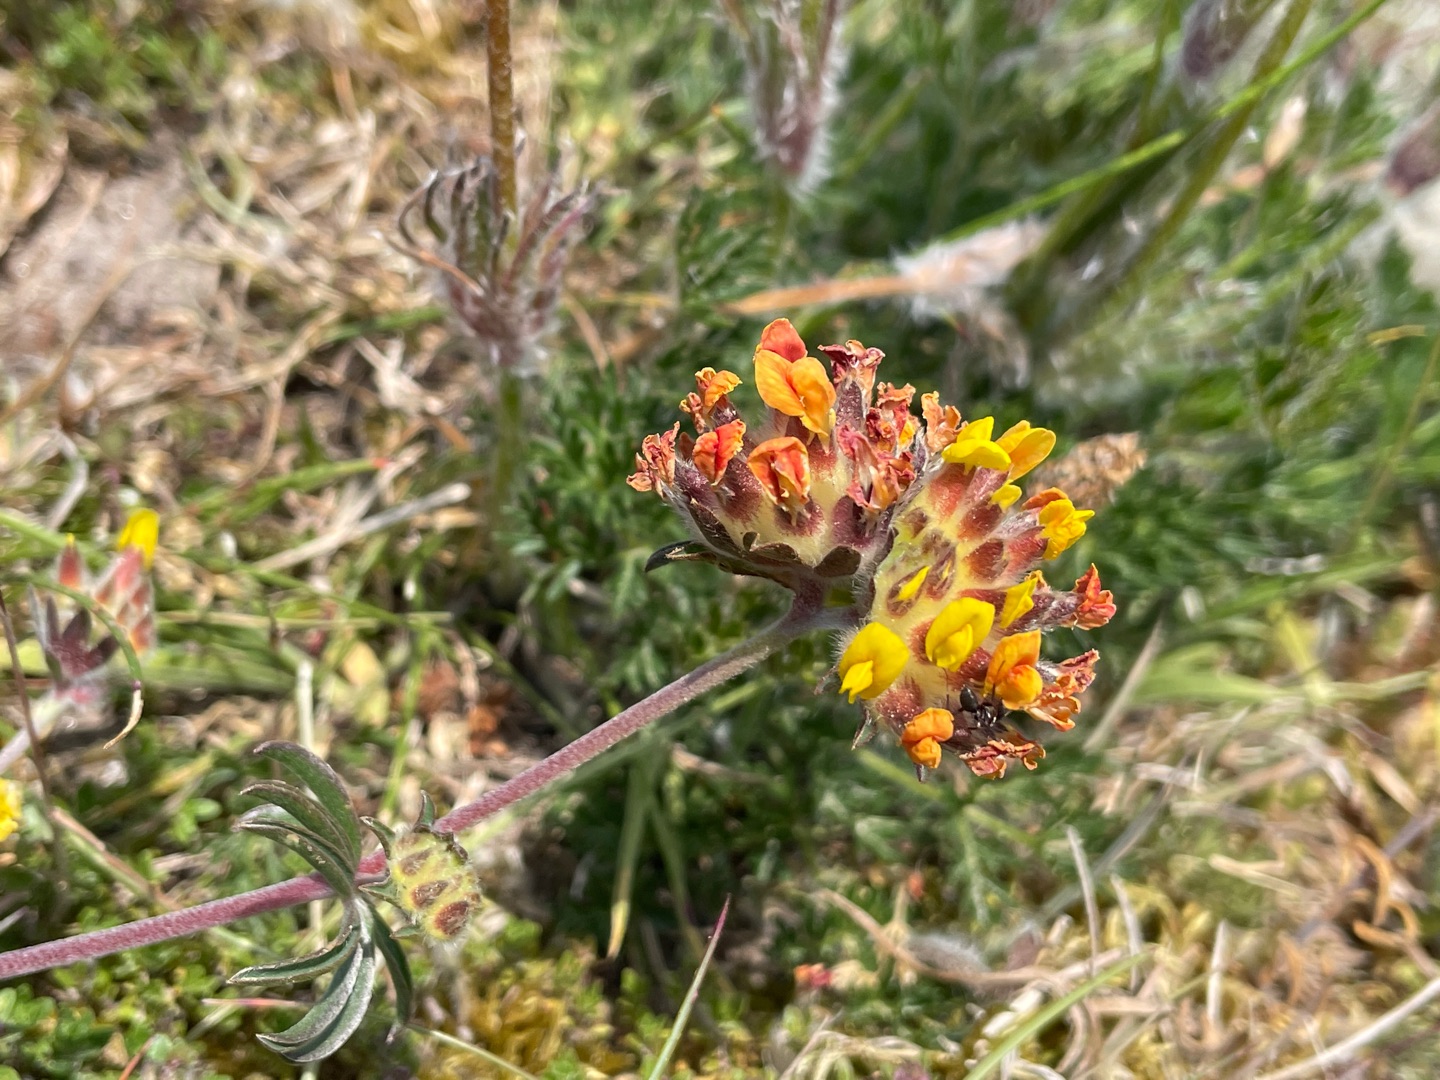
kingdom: Plantae
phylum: Tracheophyta
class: Magnoliopsida
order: Fabales
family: Fabaceae
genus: Anthyllis
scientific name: Anthyllis vulneraria
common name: Rundbælg
